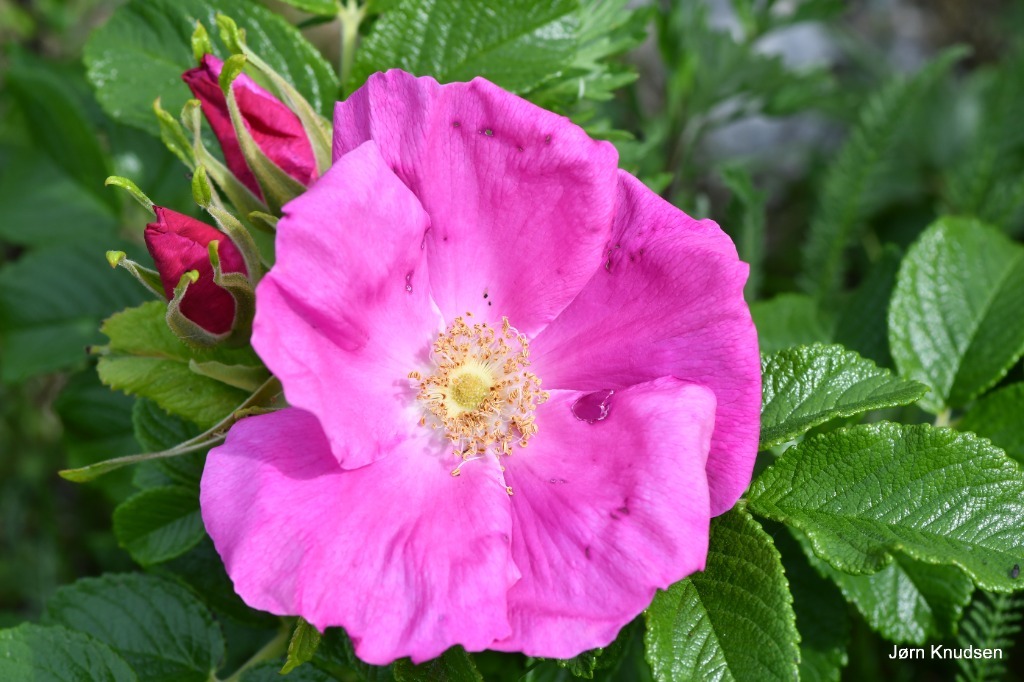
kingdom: Plantae
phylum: Tracheophyta
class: Magnoliopsida
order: Rosales
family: Rosaceae
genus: Rosa
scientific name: Rosa rugosa
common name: Rynket rose
